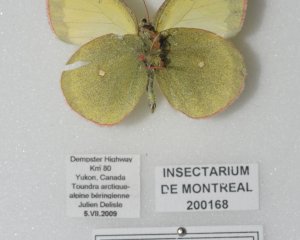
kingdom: Animalia
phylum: Arthropoda
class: Insecta
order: Lepidoptera
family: Pieridae
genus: Colias
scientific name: Colias palaeno
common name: Chippewa Sulphur
